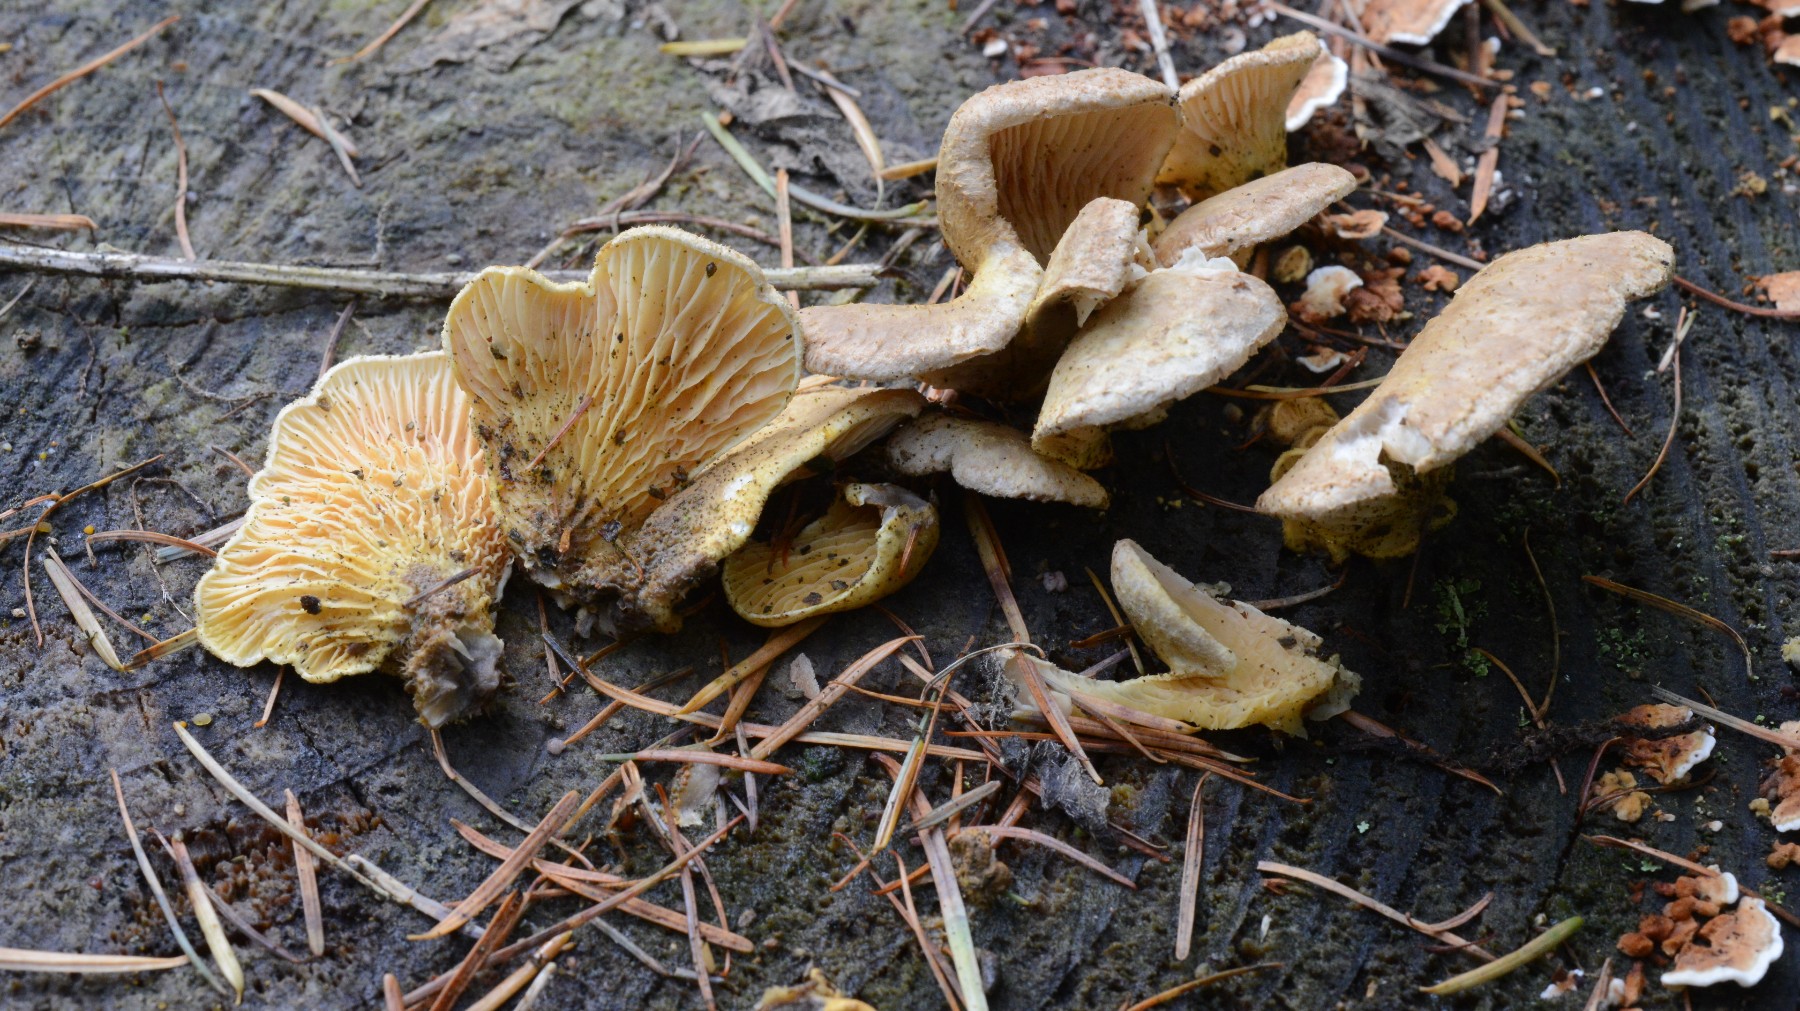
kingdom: Fungi
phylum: Basidiomycota
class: Agaricomycetes
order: Boletales
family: Tapinellaceae
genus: Tapinella
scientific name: Tapinella panuoides
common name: tømmer-viftesvamp
